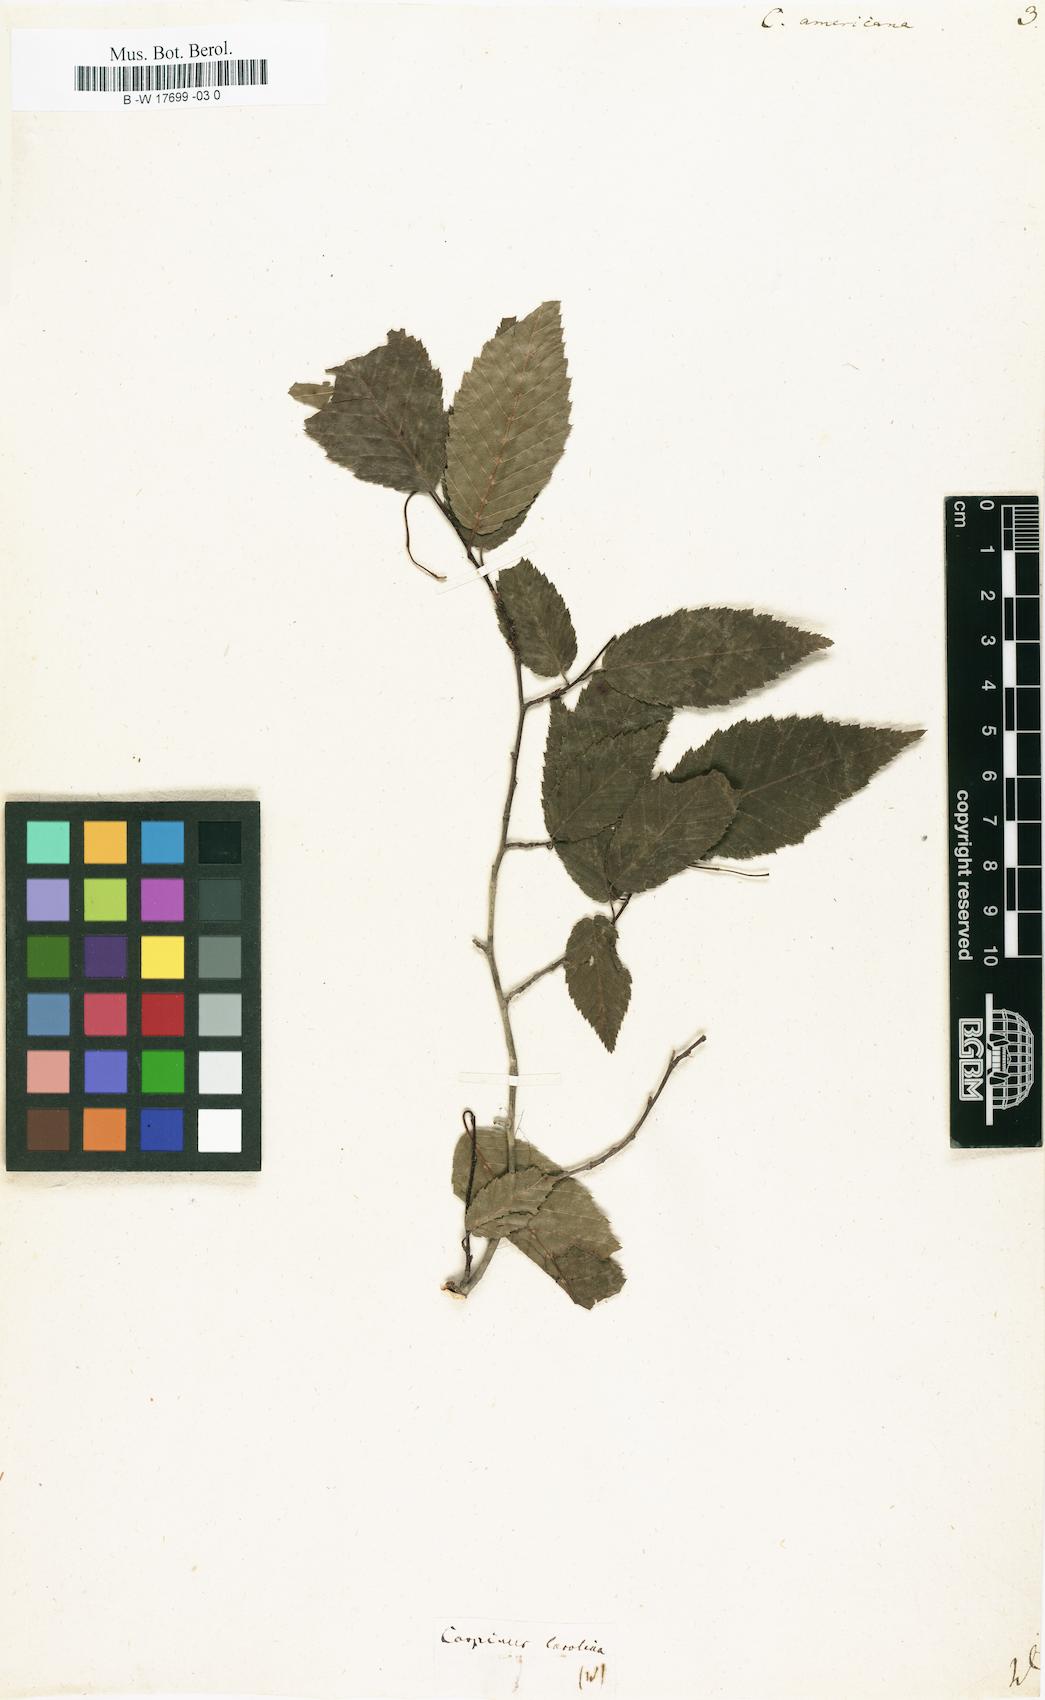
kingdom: Plantae
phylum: Tracheophyta
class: Magnoliopsida
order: Fagales
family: Betulaceae
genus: Carpinus
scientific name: Carpinus caroliniana
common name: American hornbeam
